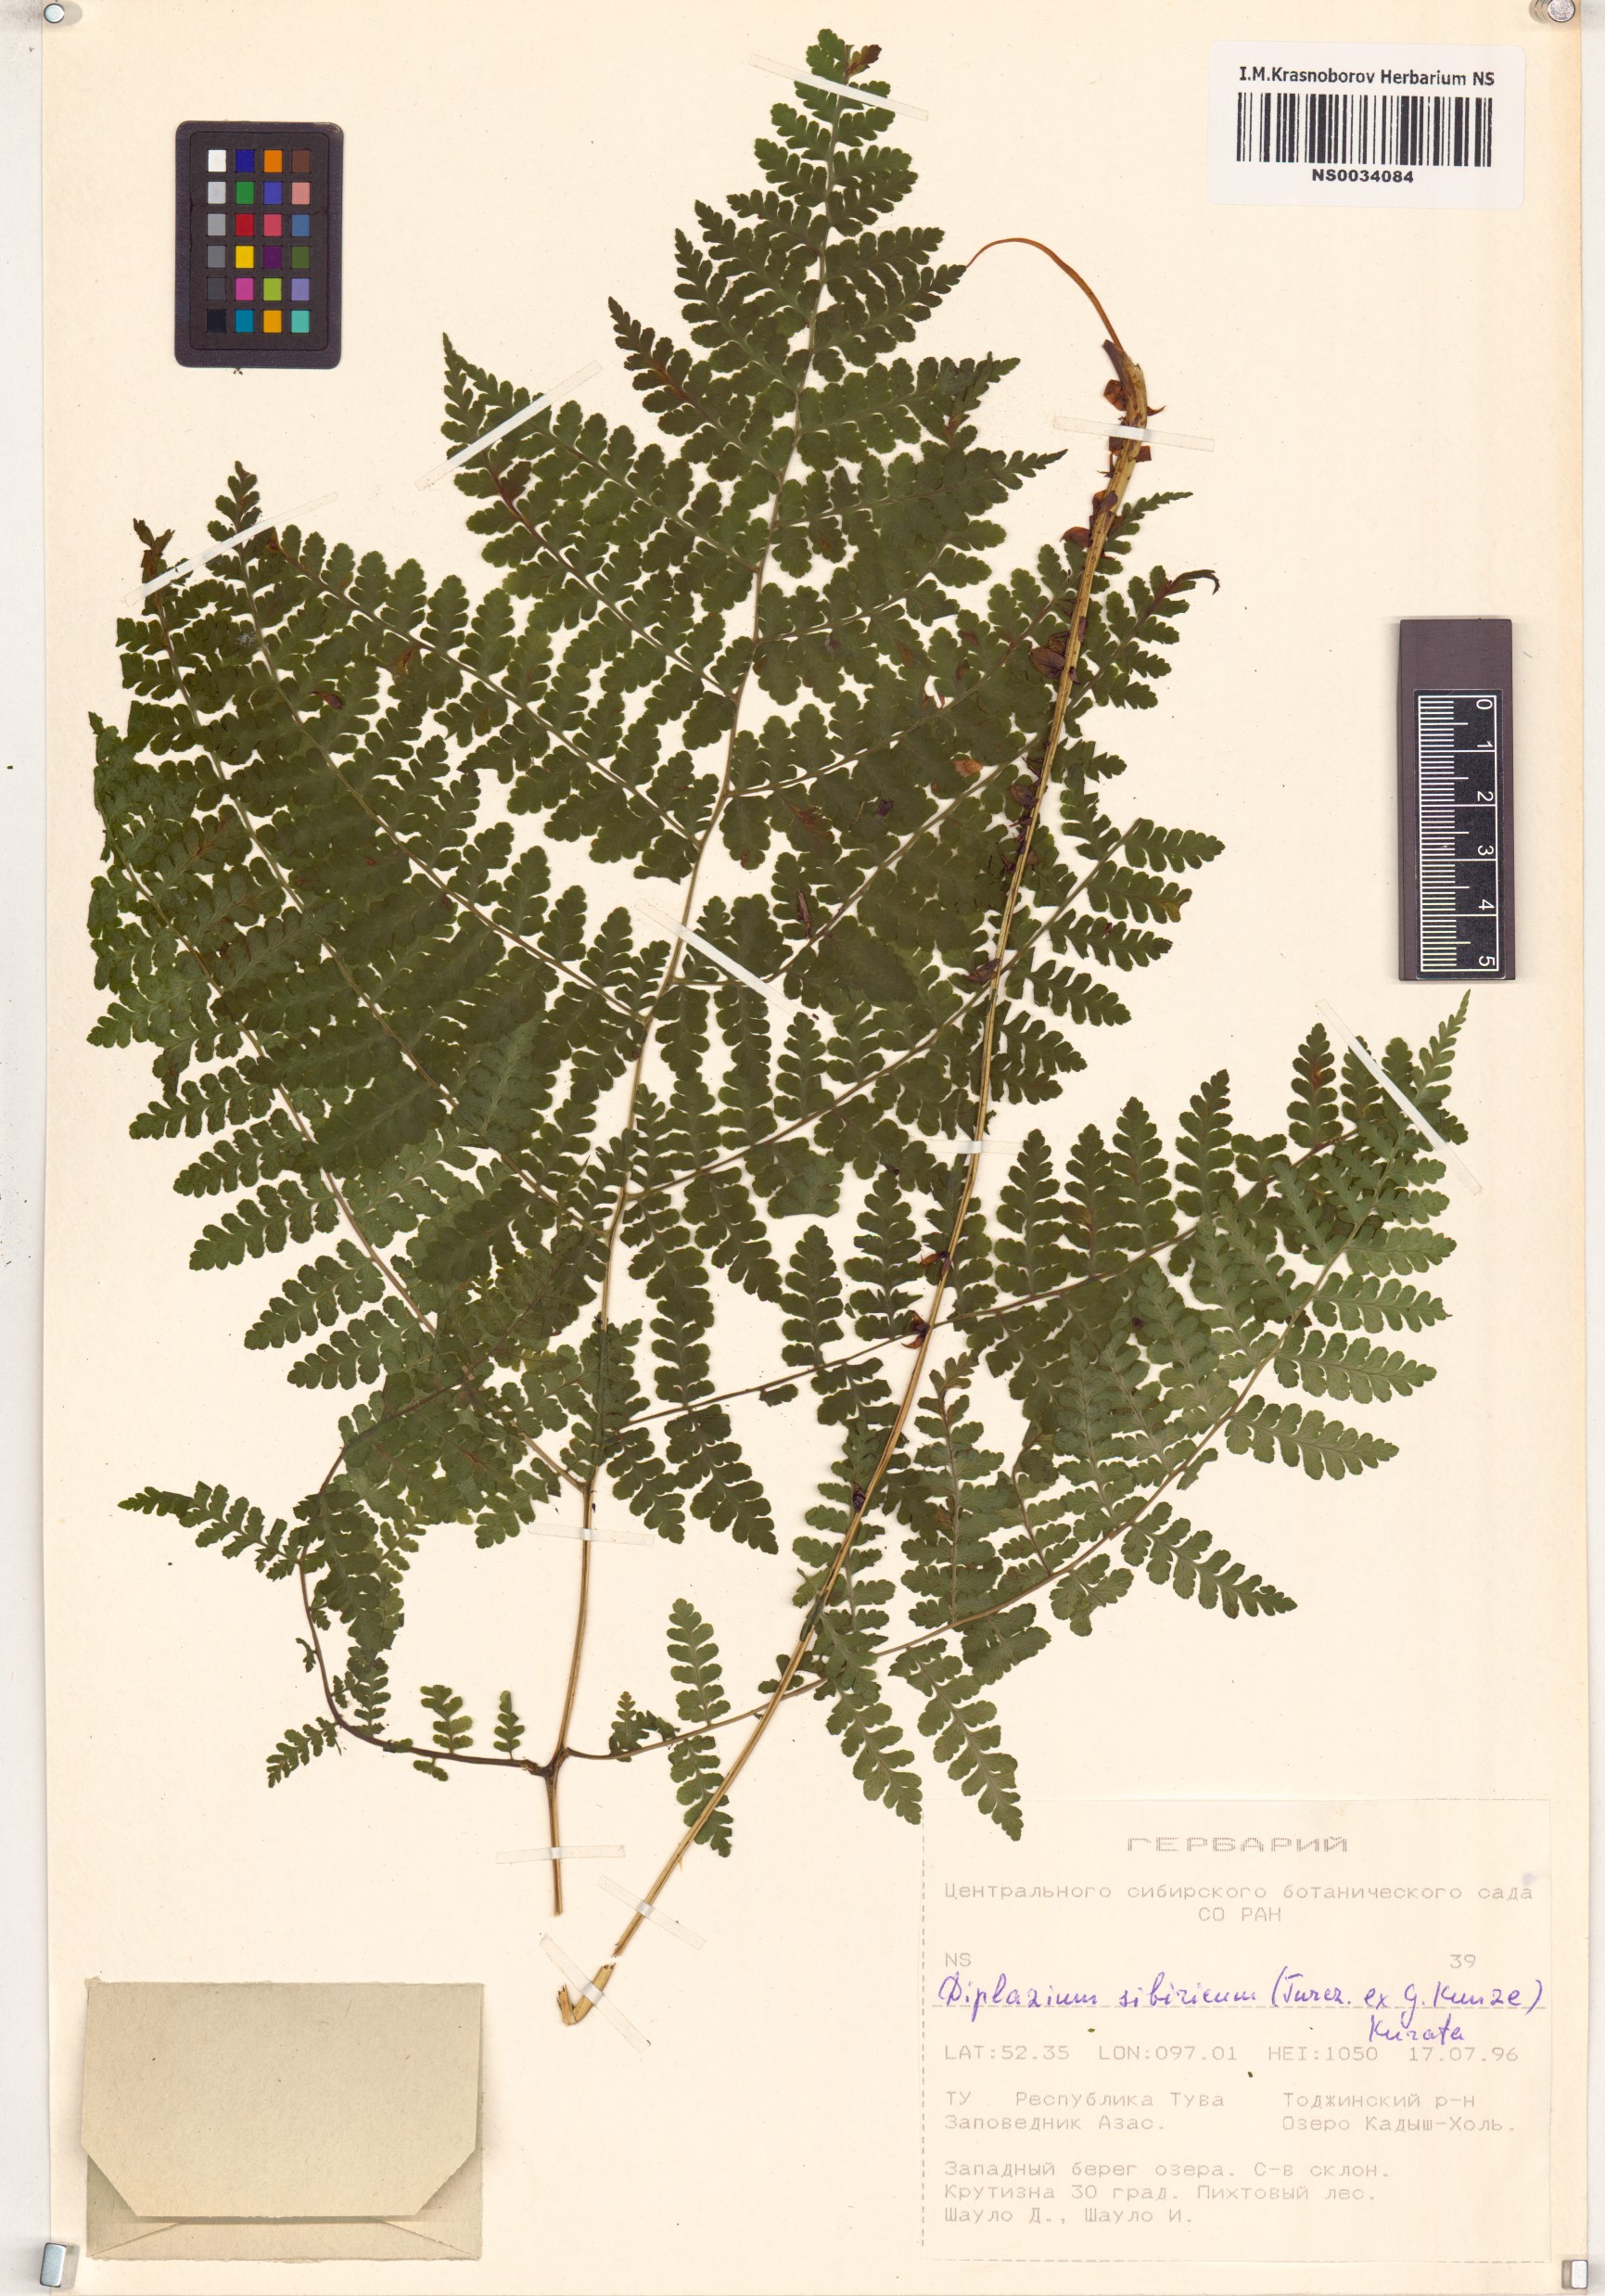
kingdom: Plantae
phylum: Tracheophyta
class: Polypodiopsida
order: Polypodiales
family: Athyriaceae
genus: Diplazium
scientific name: Diplazium sibiricum
